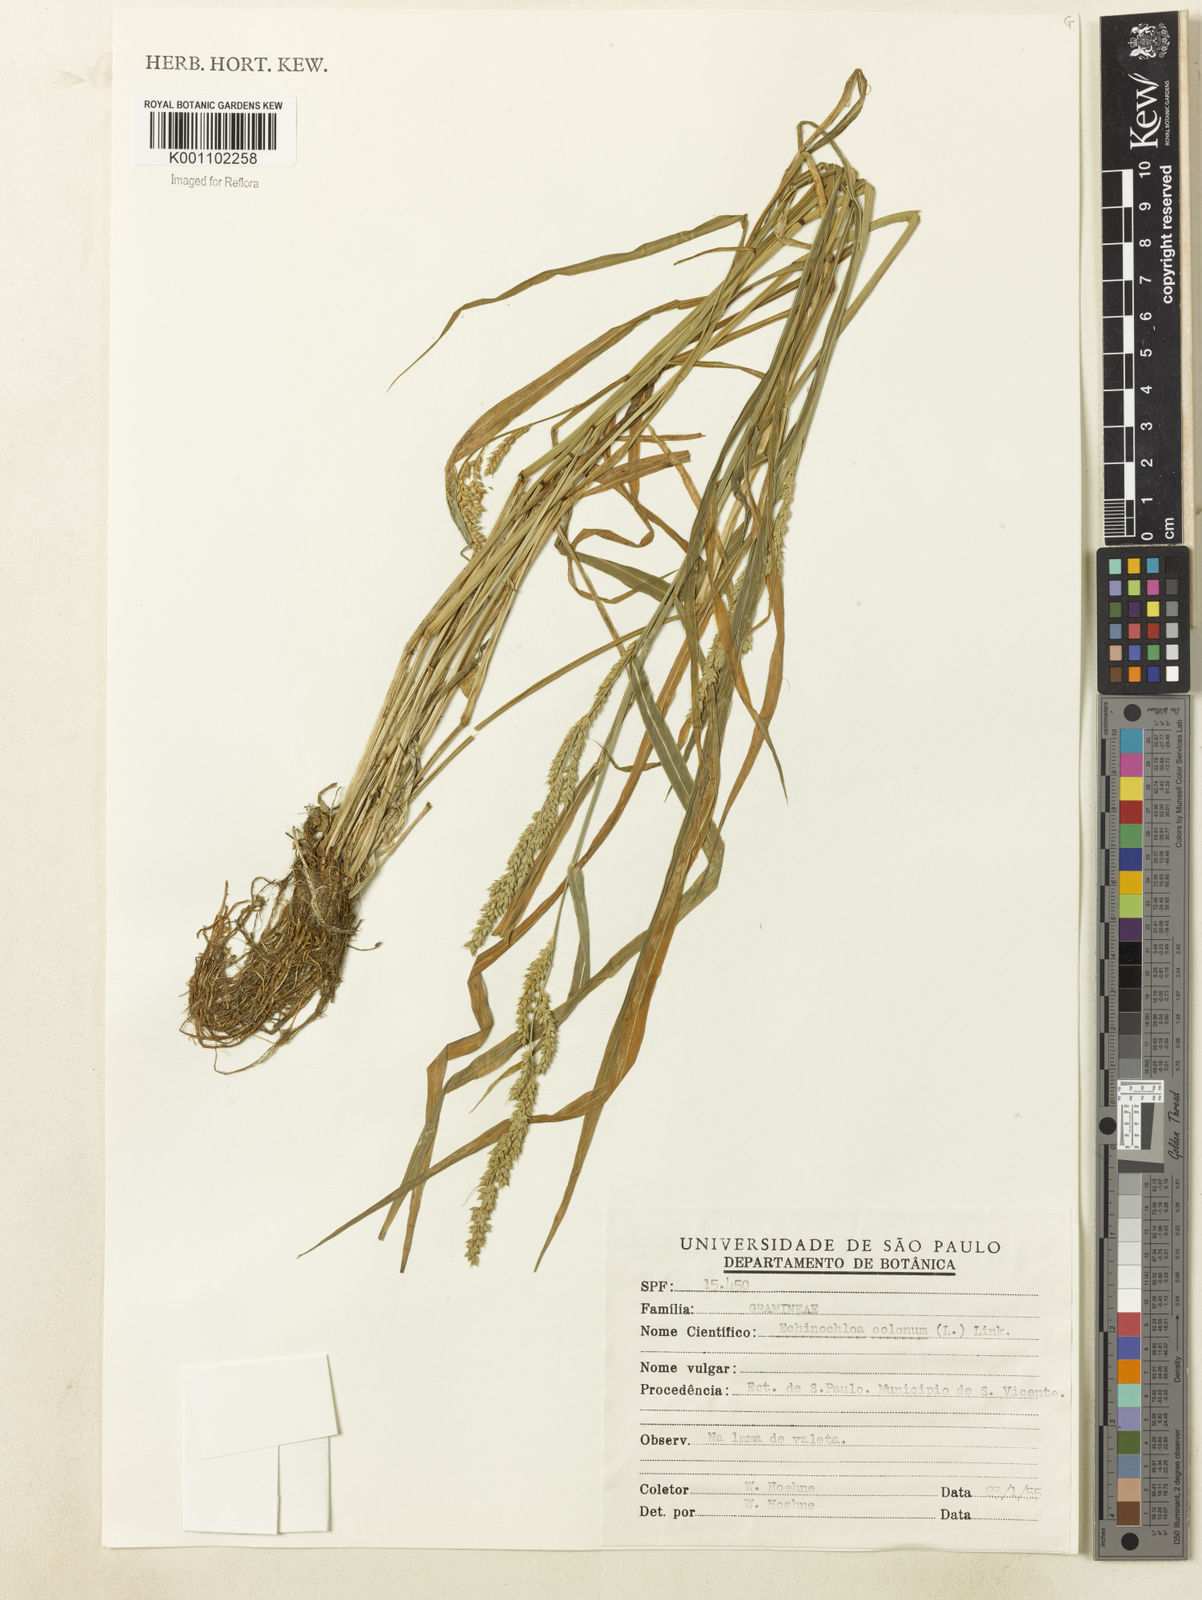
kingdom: Plantae
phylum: Tracheophyta
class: Liliopsida
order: Poales
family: Poaceae
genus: Echinochloa
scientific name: Echinochloa colonum
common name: Jungle rice
